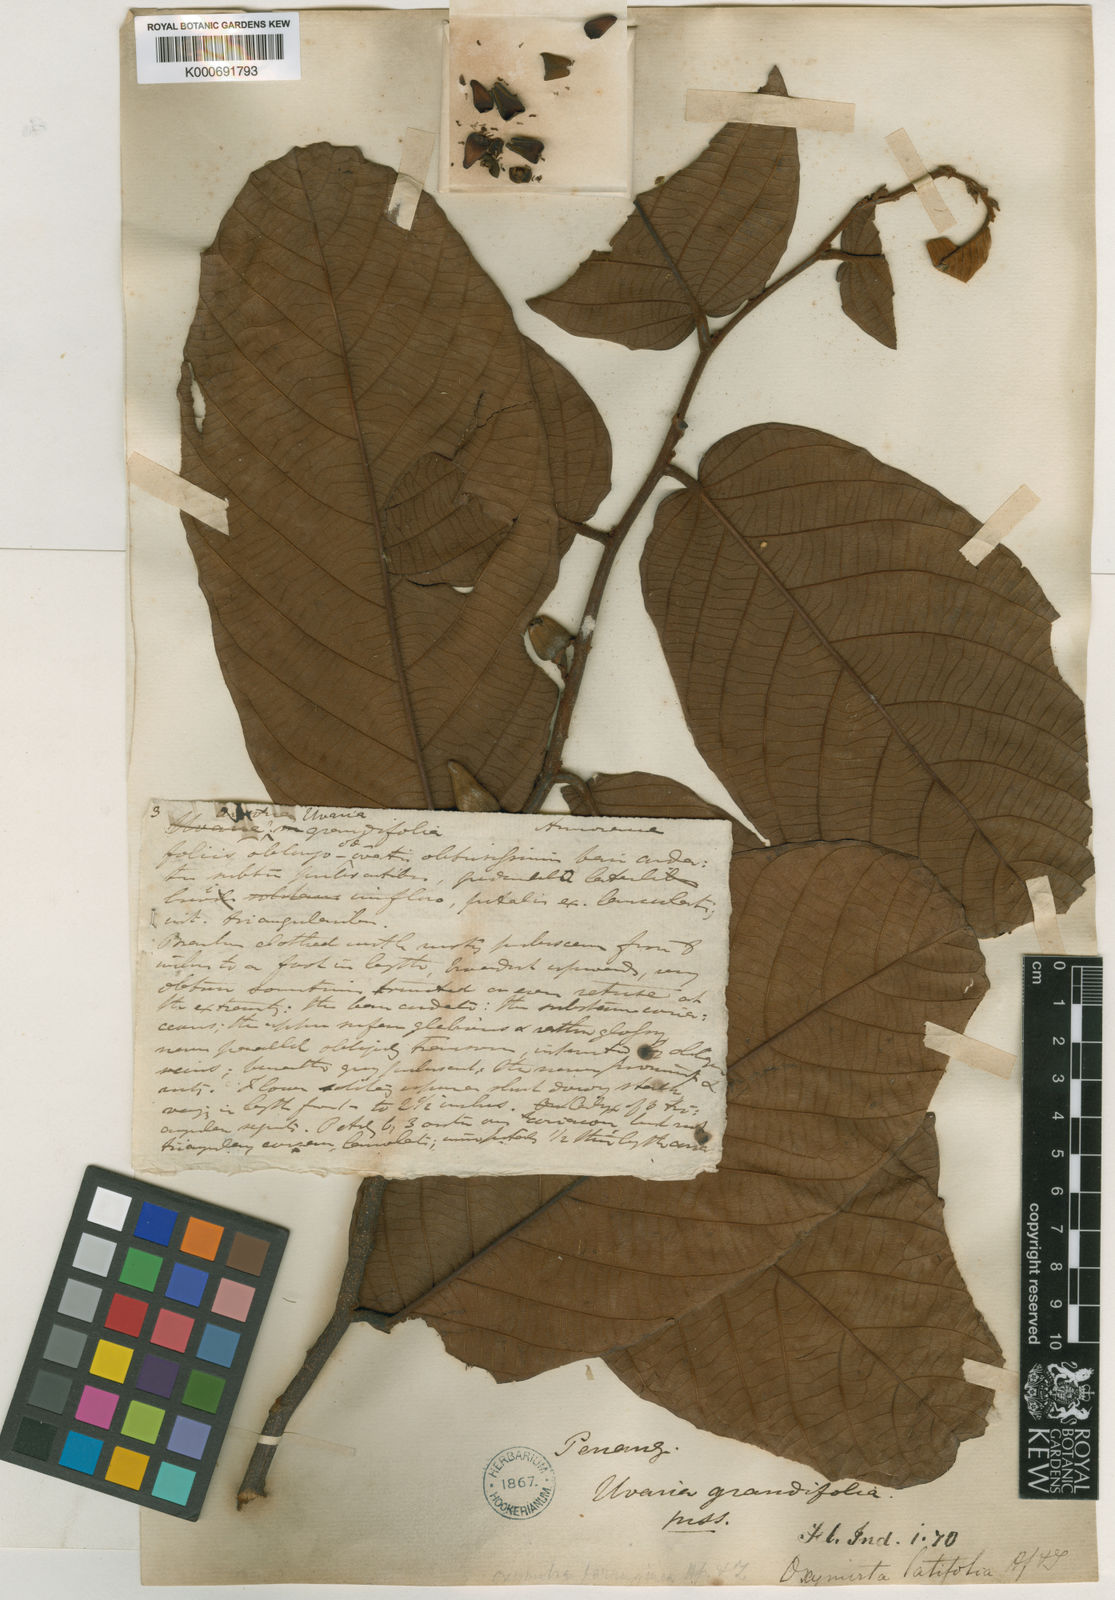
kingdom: Plantae
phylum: Tracheophyta
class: Magnoliopsida
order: Magnoliales
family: Annonaceae
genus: Friesodielsia
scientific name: Friesodielsia latifolia
